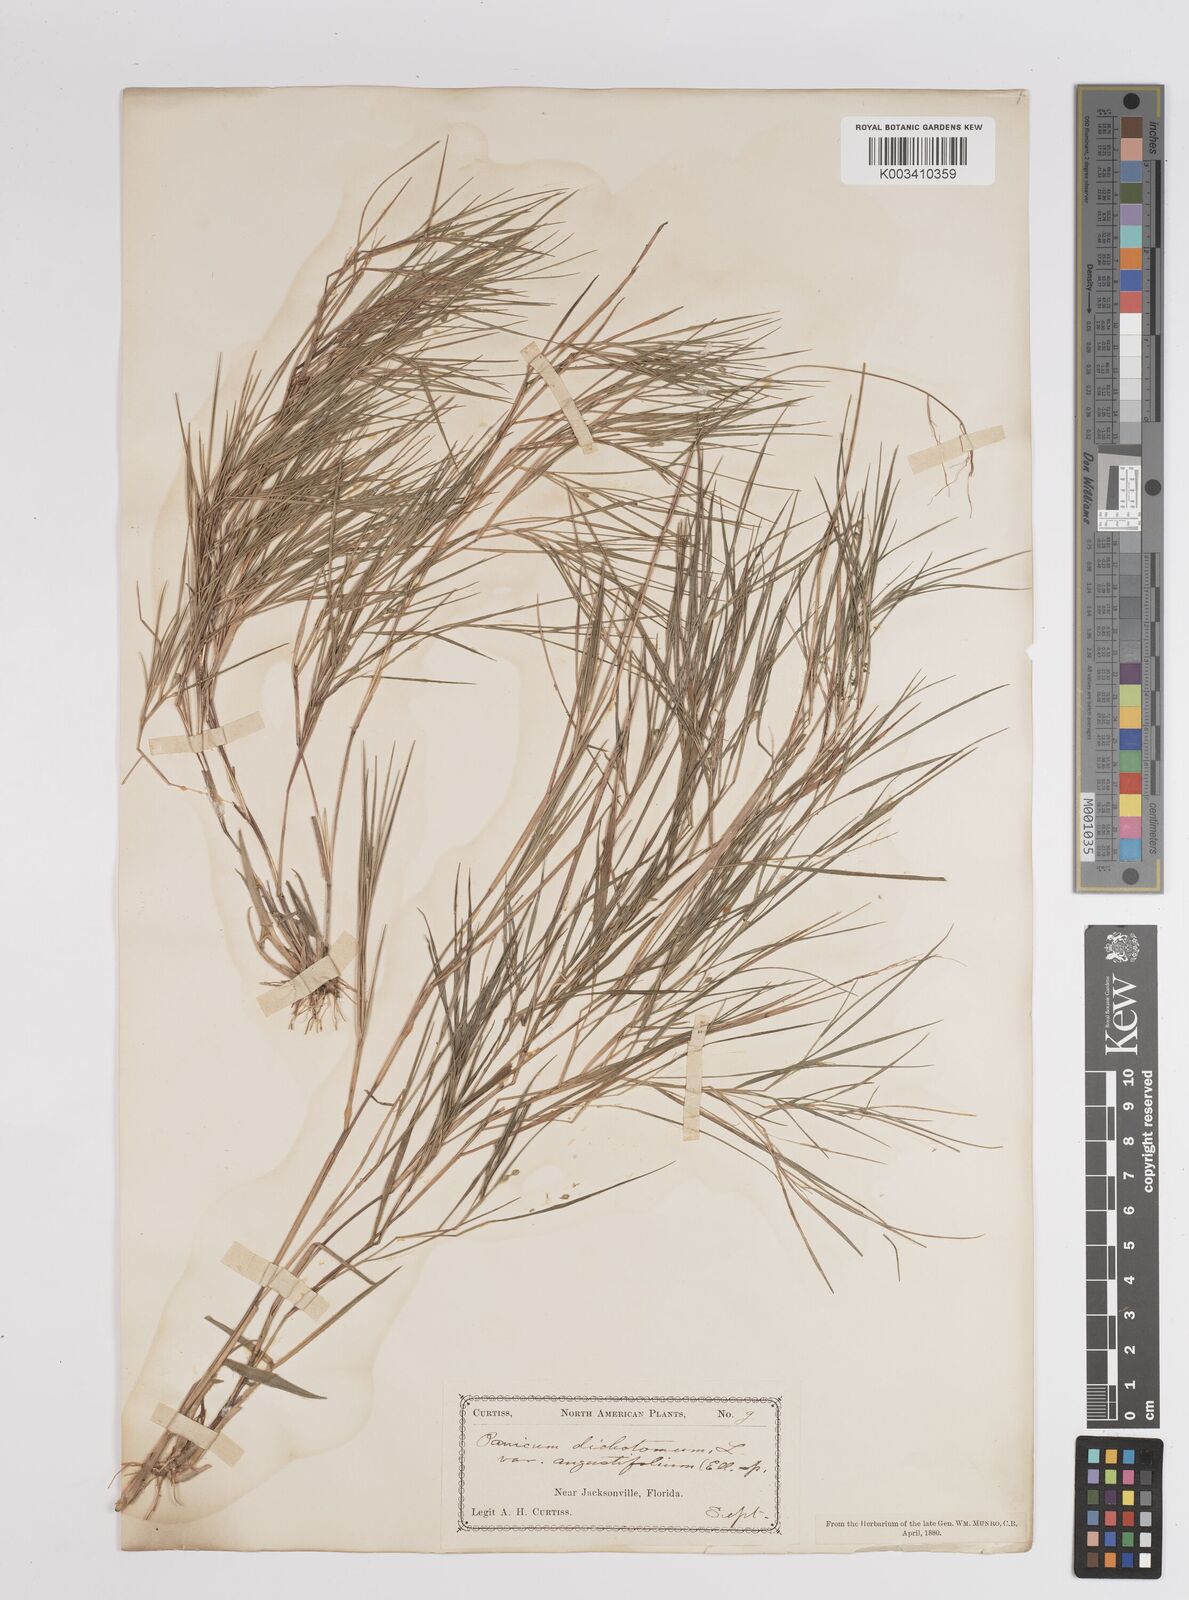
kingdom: Plantae
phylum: Tracheophyta
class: Liliopsida
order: Poales
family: Poaceae
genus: Dichanthelium
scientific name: Dichanthelium angustifolium
